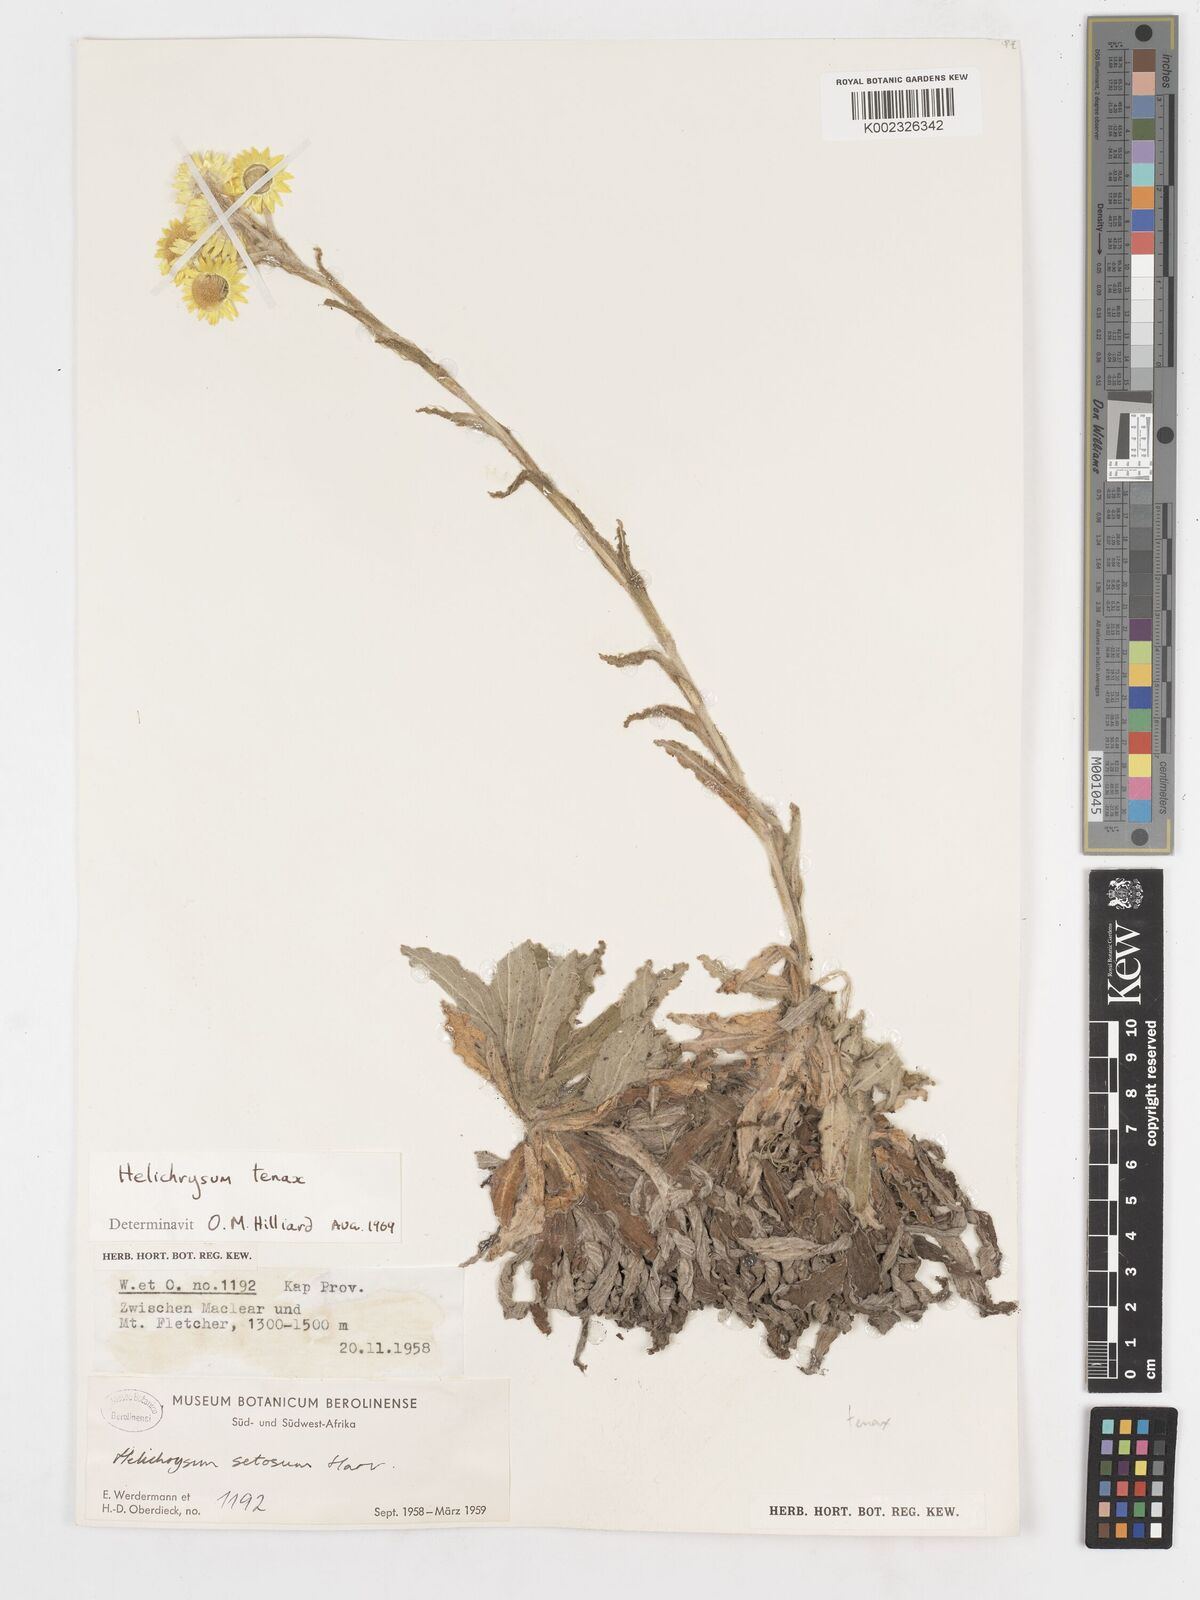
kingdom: Plantae
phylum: Tracheophyta
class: Magnoliopsida
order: Asterales
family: Asteraceae
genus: Helichrysum
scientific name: Helichrysum tenax
